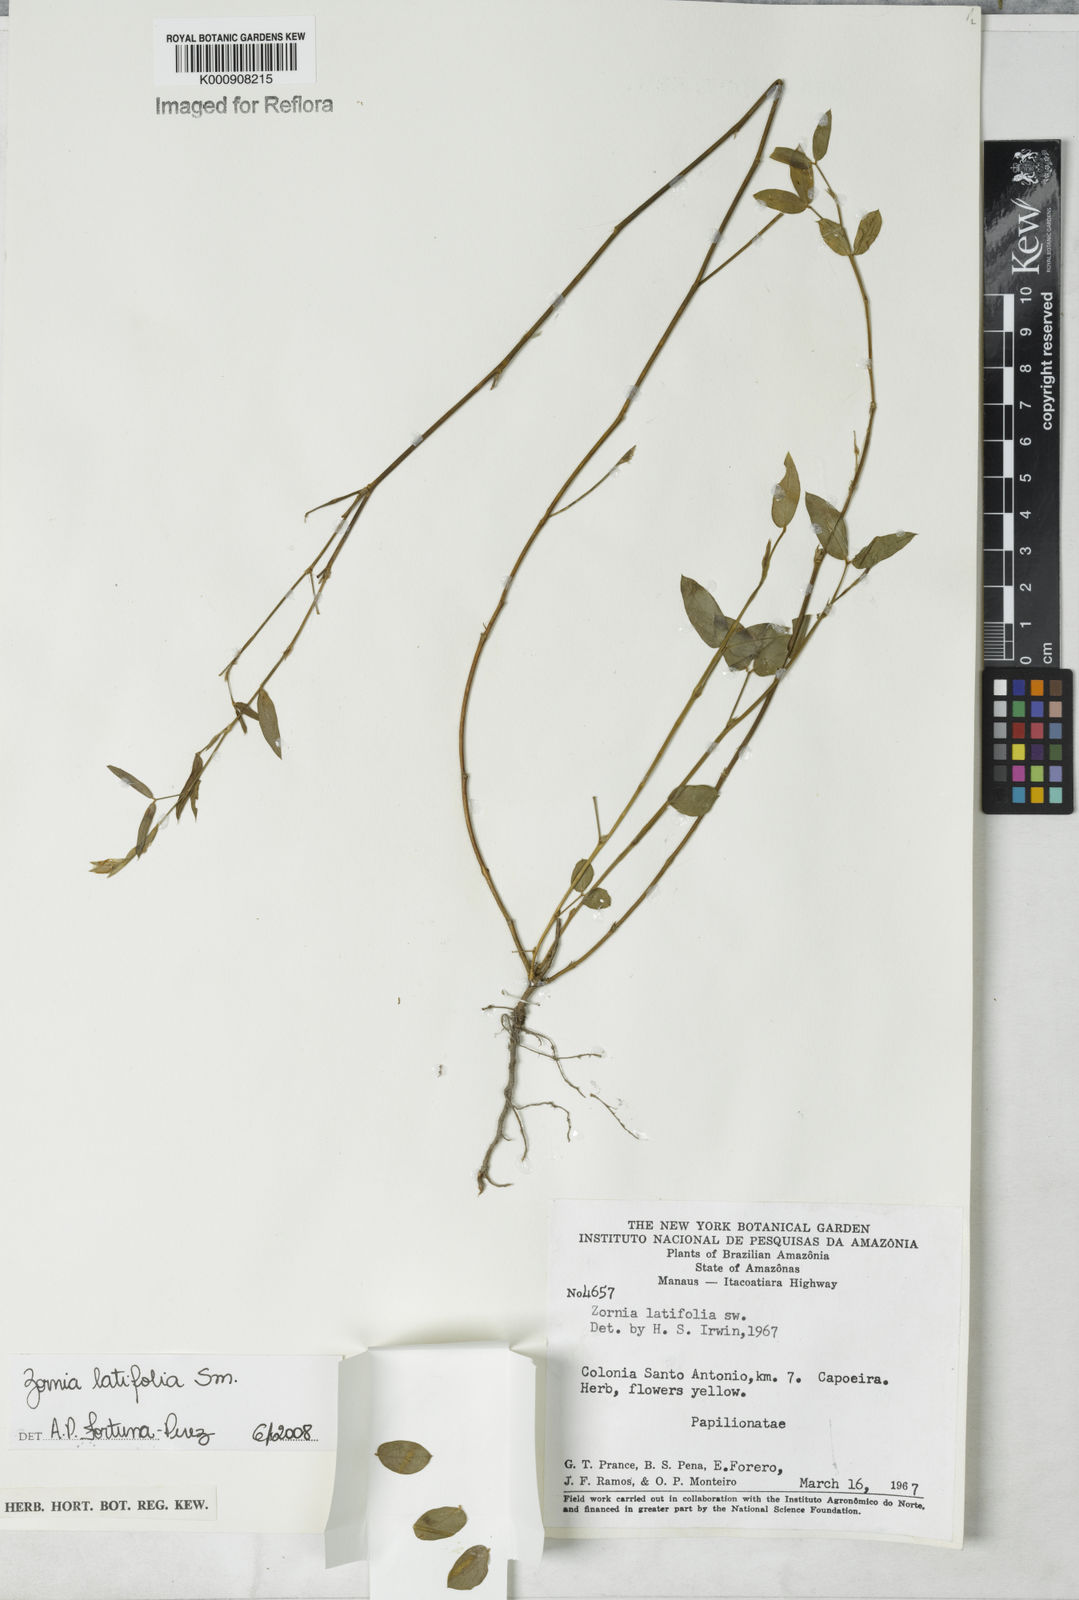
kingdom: Plantae
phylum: Tracheophyta
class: Magnoliopsida
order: Fabales
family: Fabaceae
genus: Zornia
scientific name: Zornia latifolia
